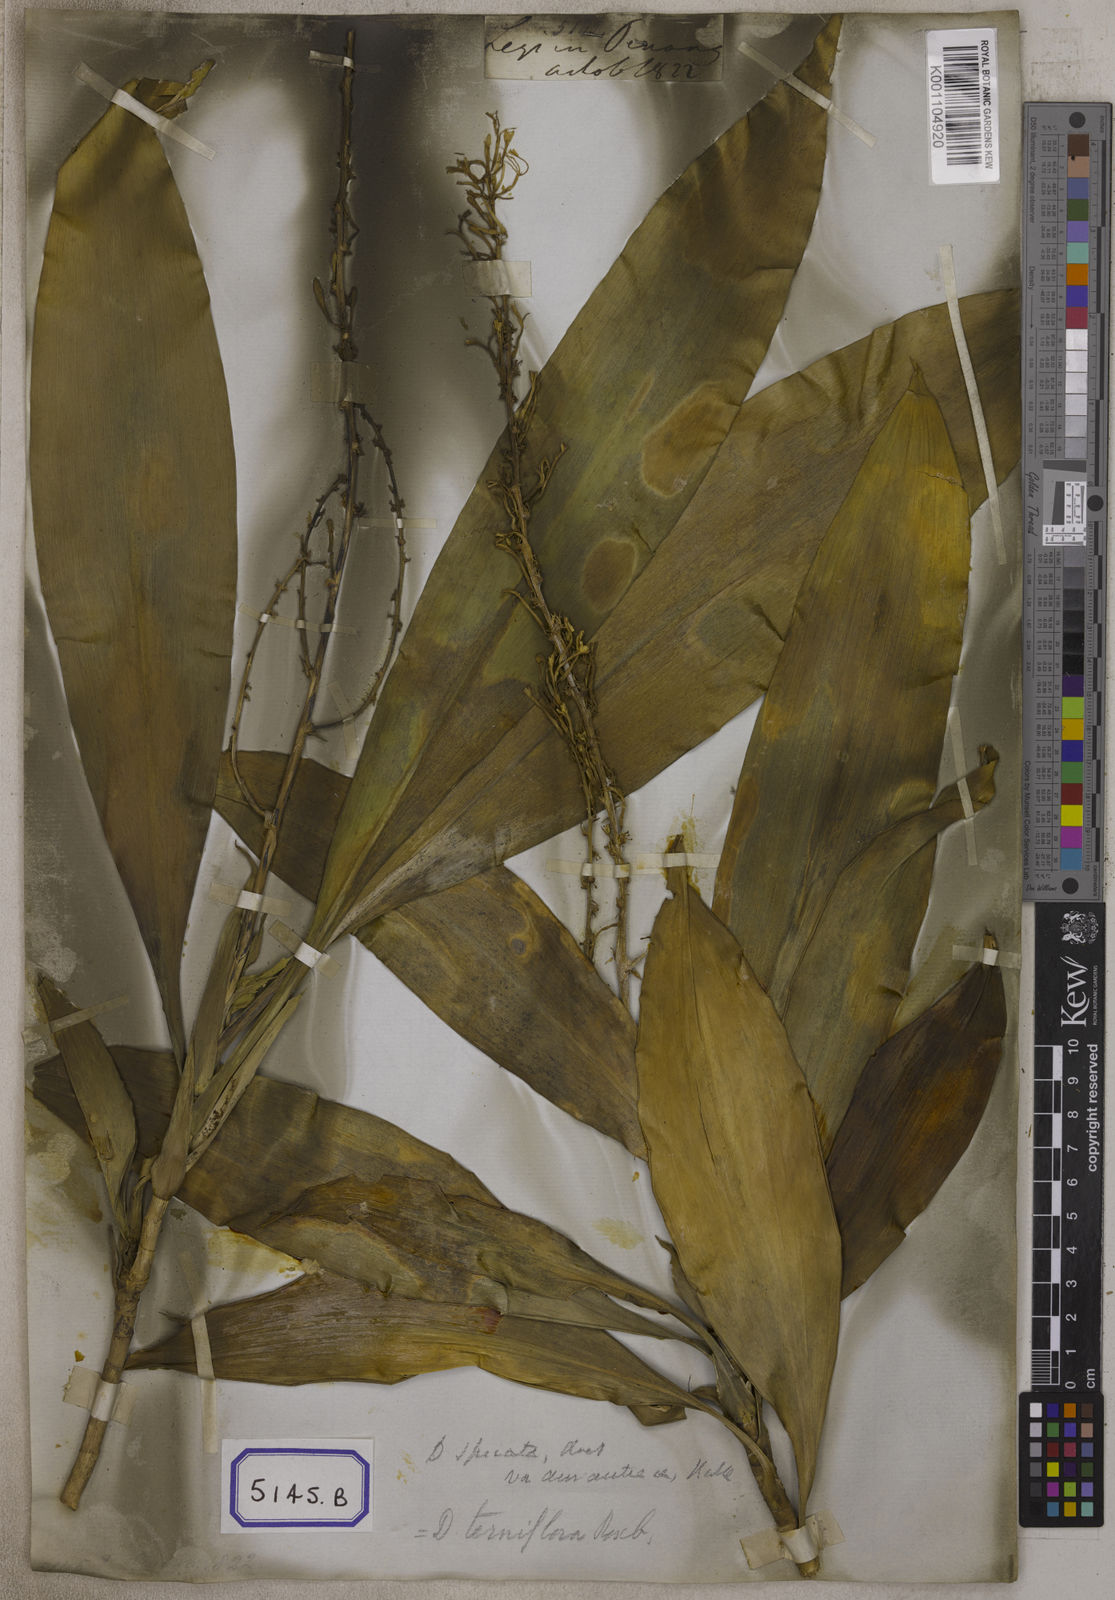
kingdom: Plantae
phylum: Tracheophyta
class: Liliopsida
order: Asparagales
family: Asparagaceae
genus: Dracaena
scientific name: Dracaena
